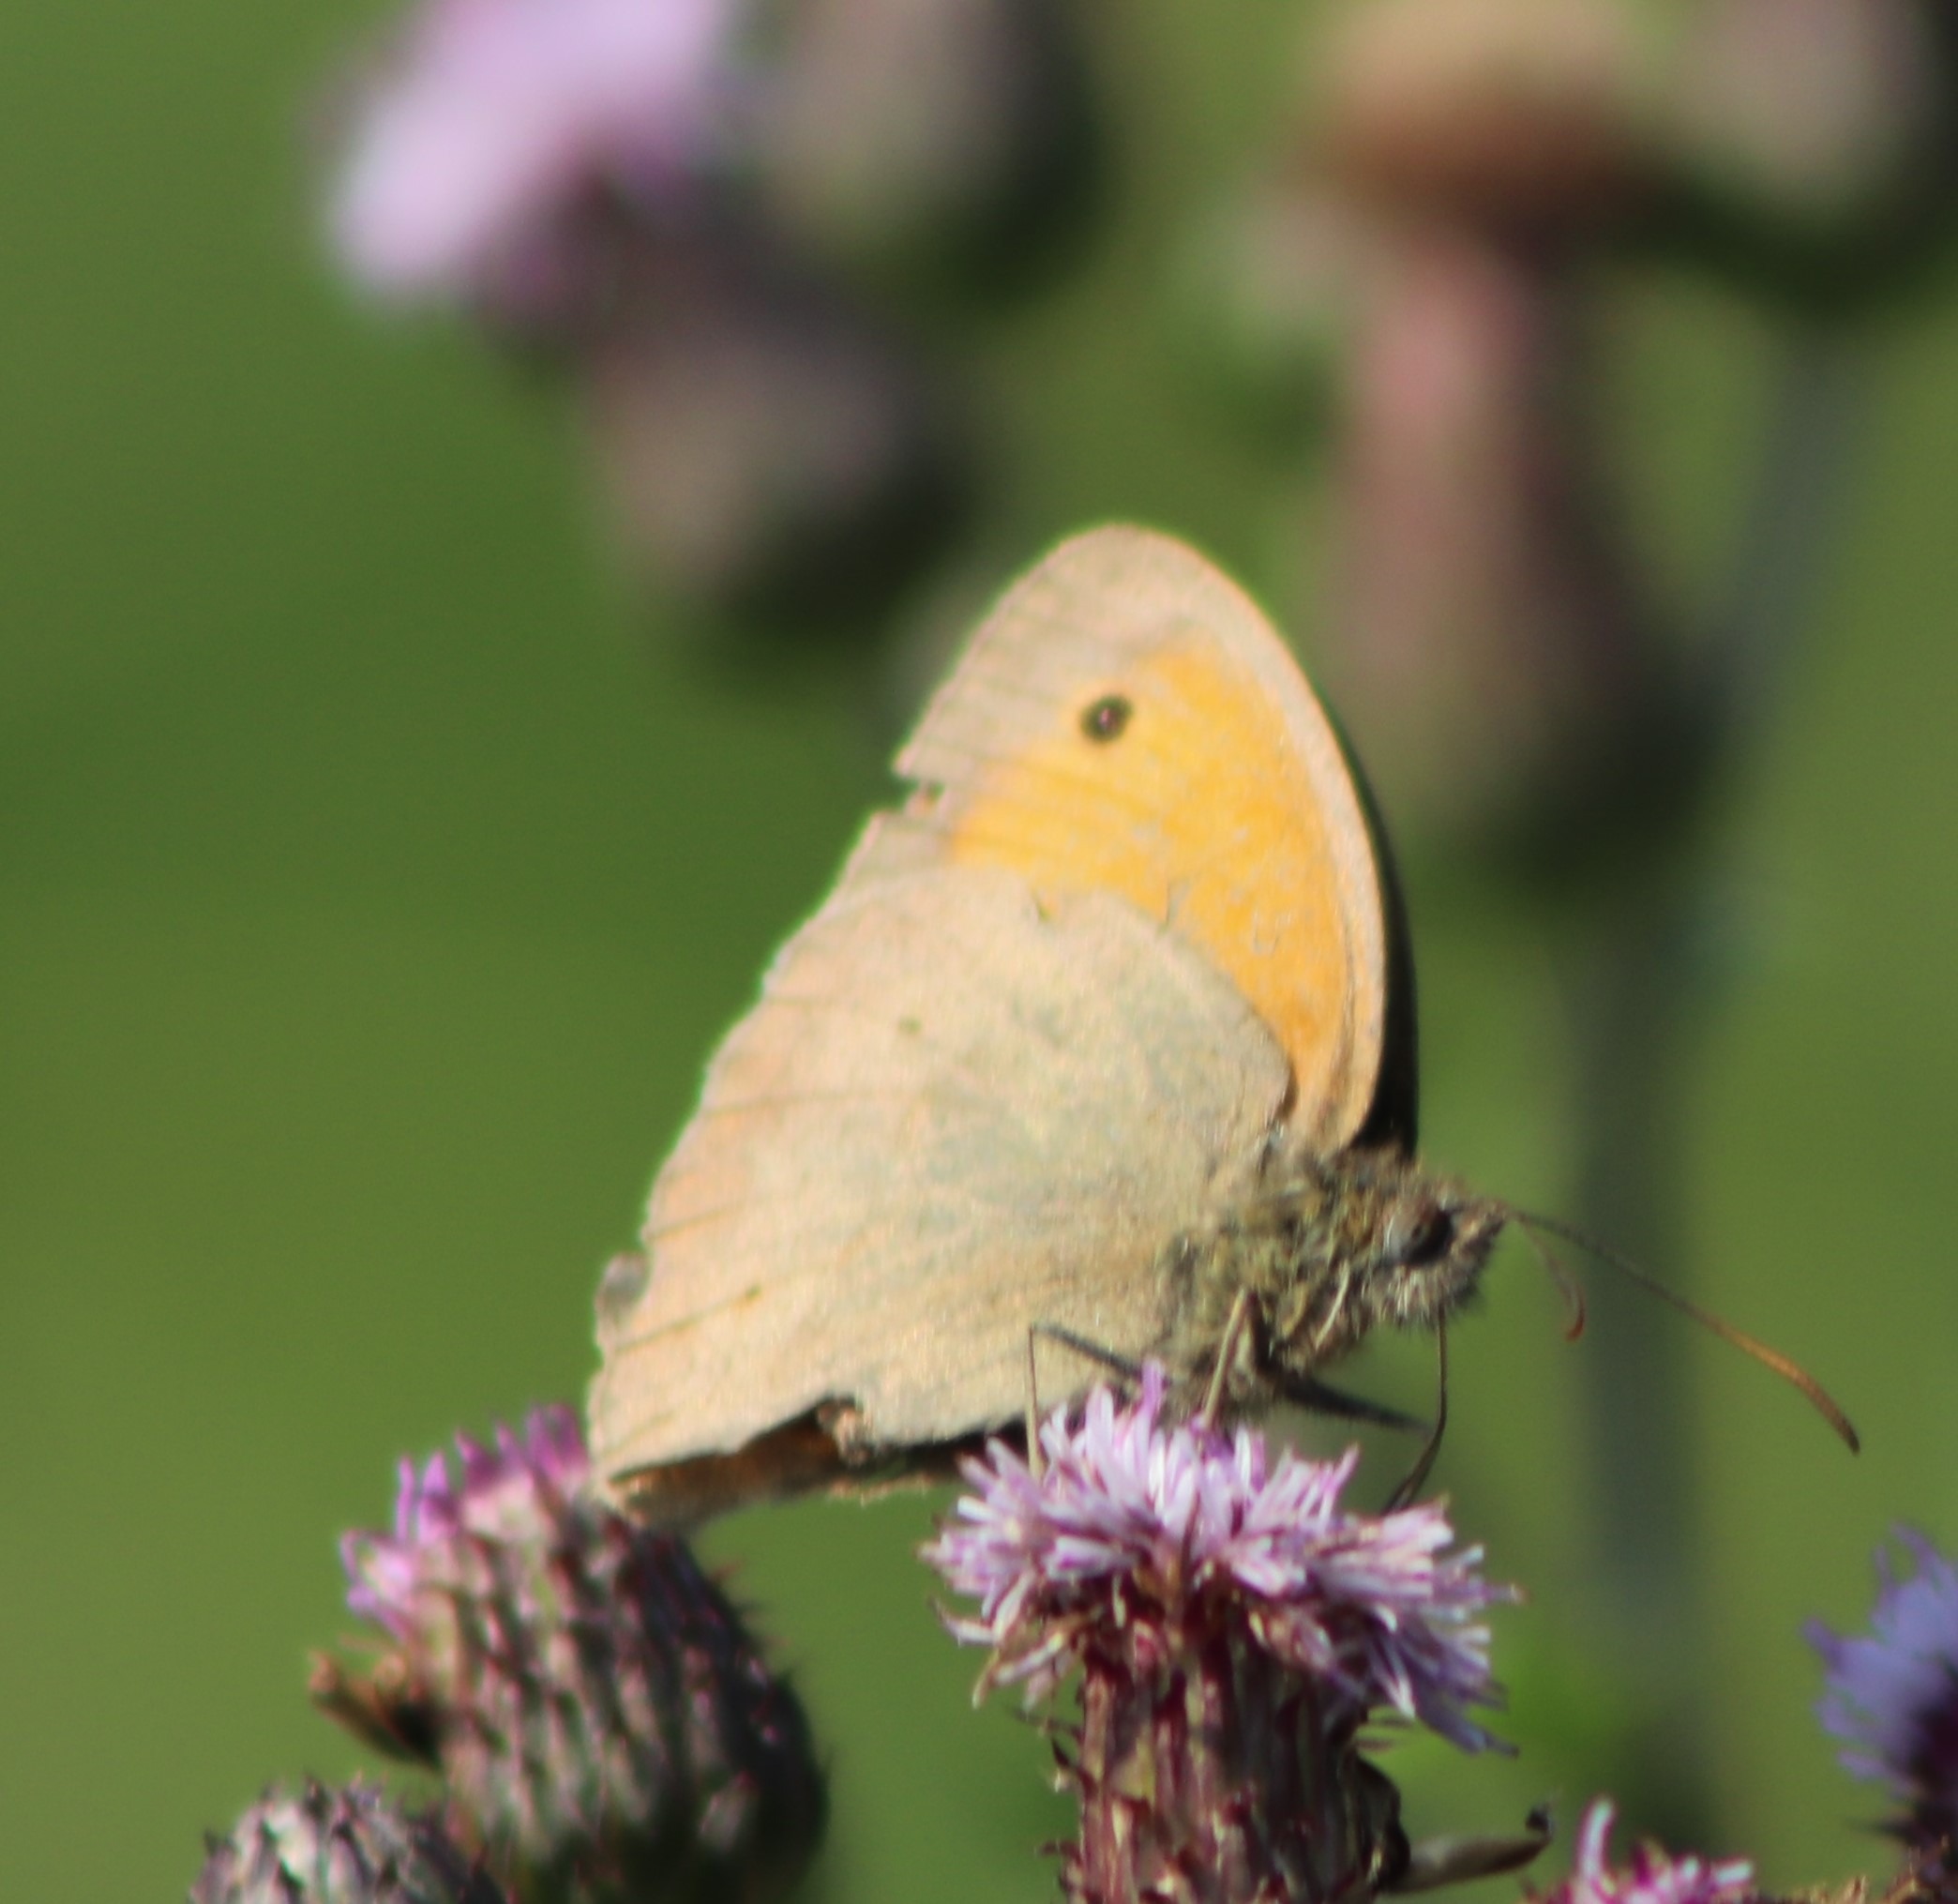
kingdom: Animalia
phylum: Arthropoda
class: Insecta
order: Lepidoptera
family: Nymphalidae
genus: Maniola
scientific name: Maniola jurtina
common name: Græsrandøje
